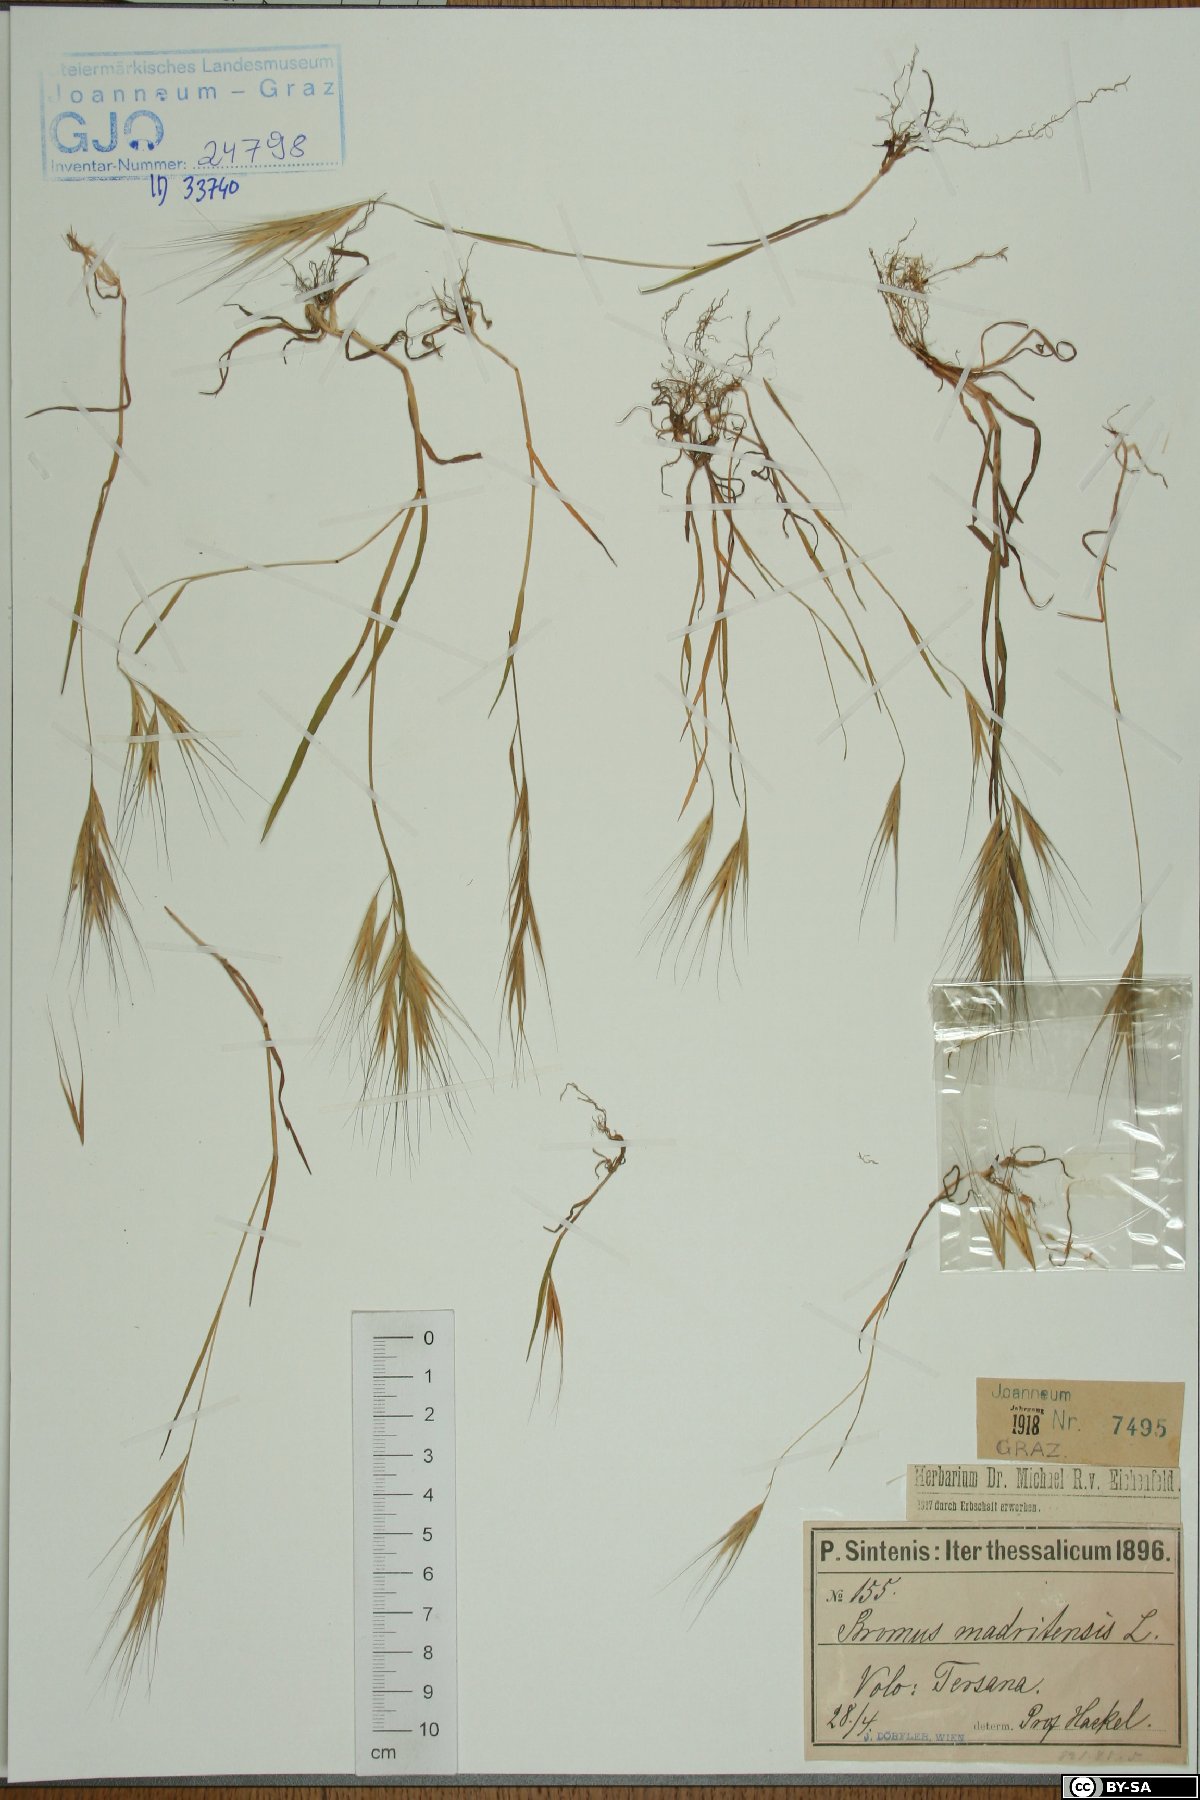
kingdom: Plantae
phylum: Tracheophyta
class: Liliopsida
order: Poales
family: Poaceae
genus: Bromus
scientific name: Bromus madritensis
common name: Compact brome
